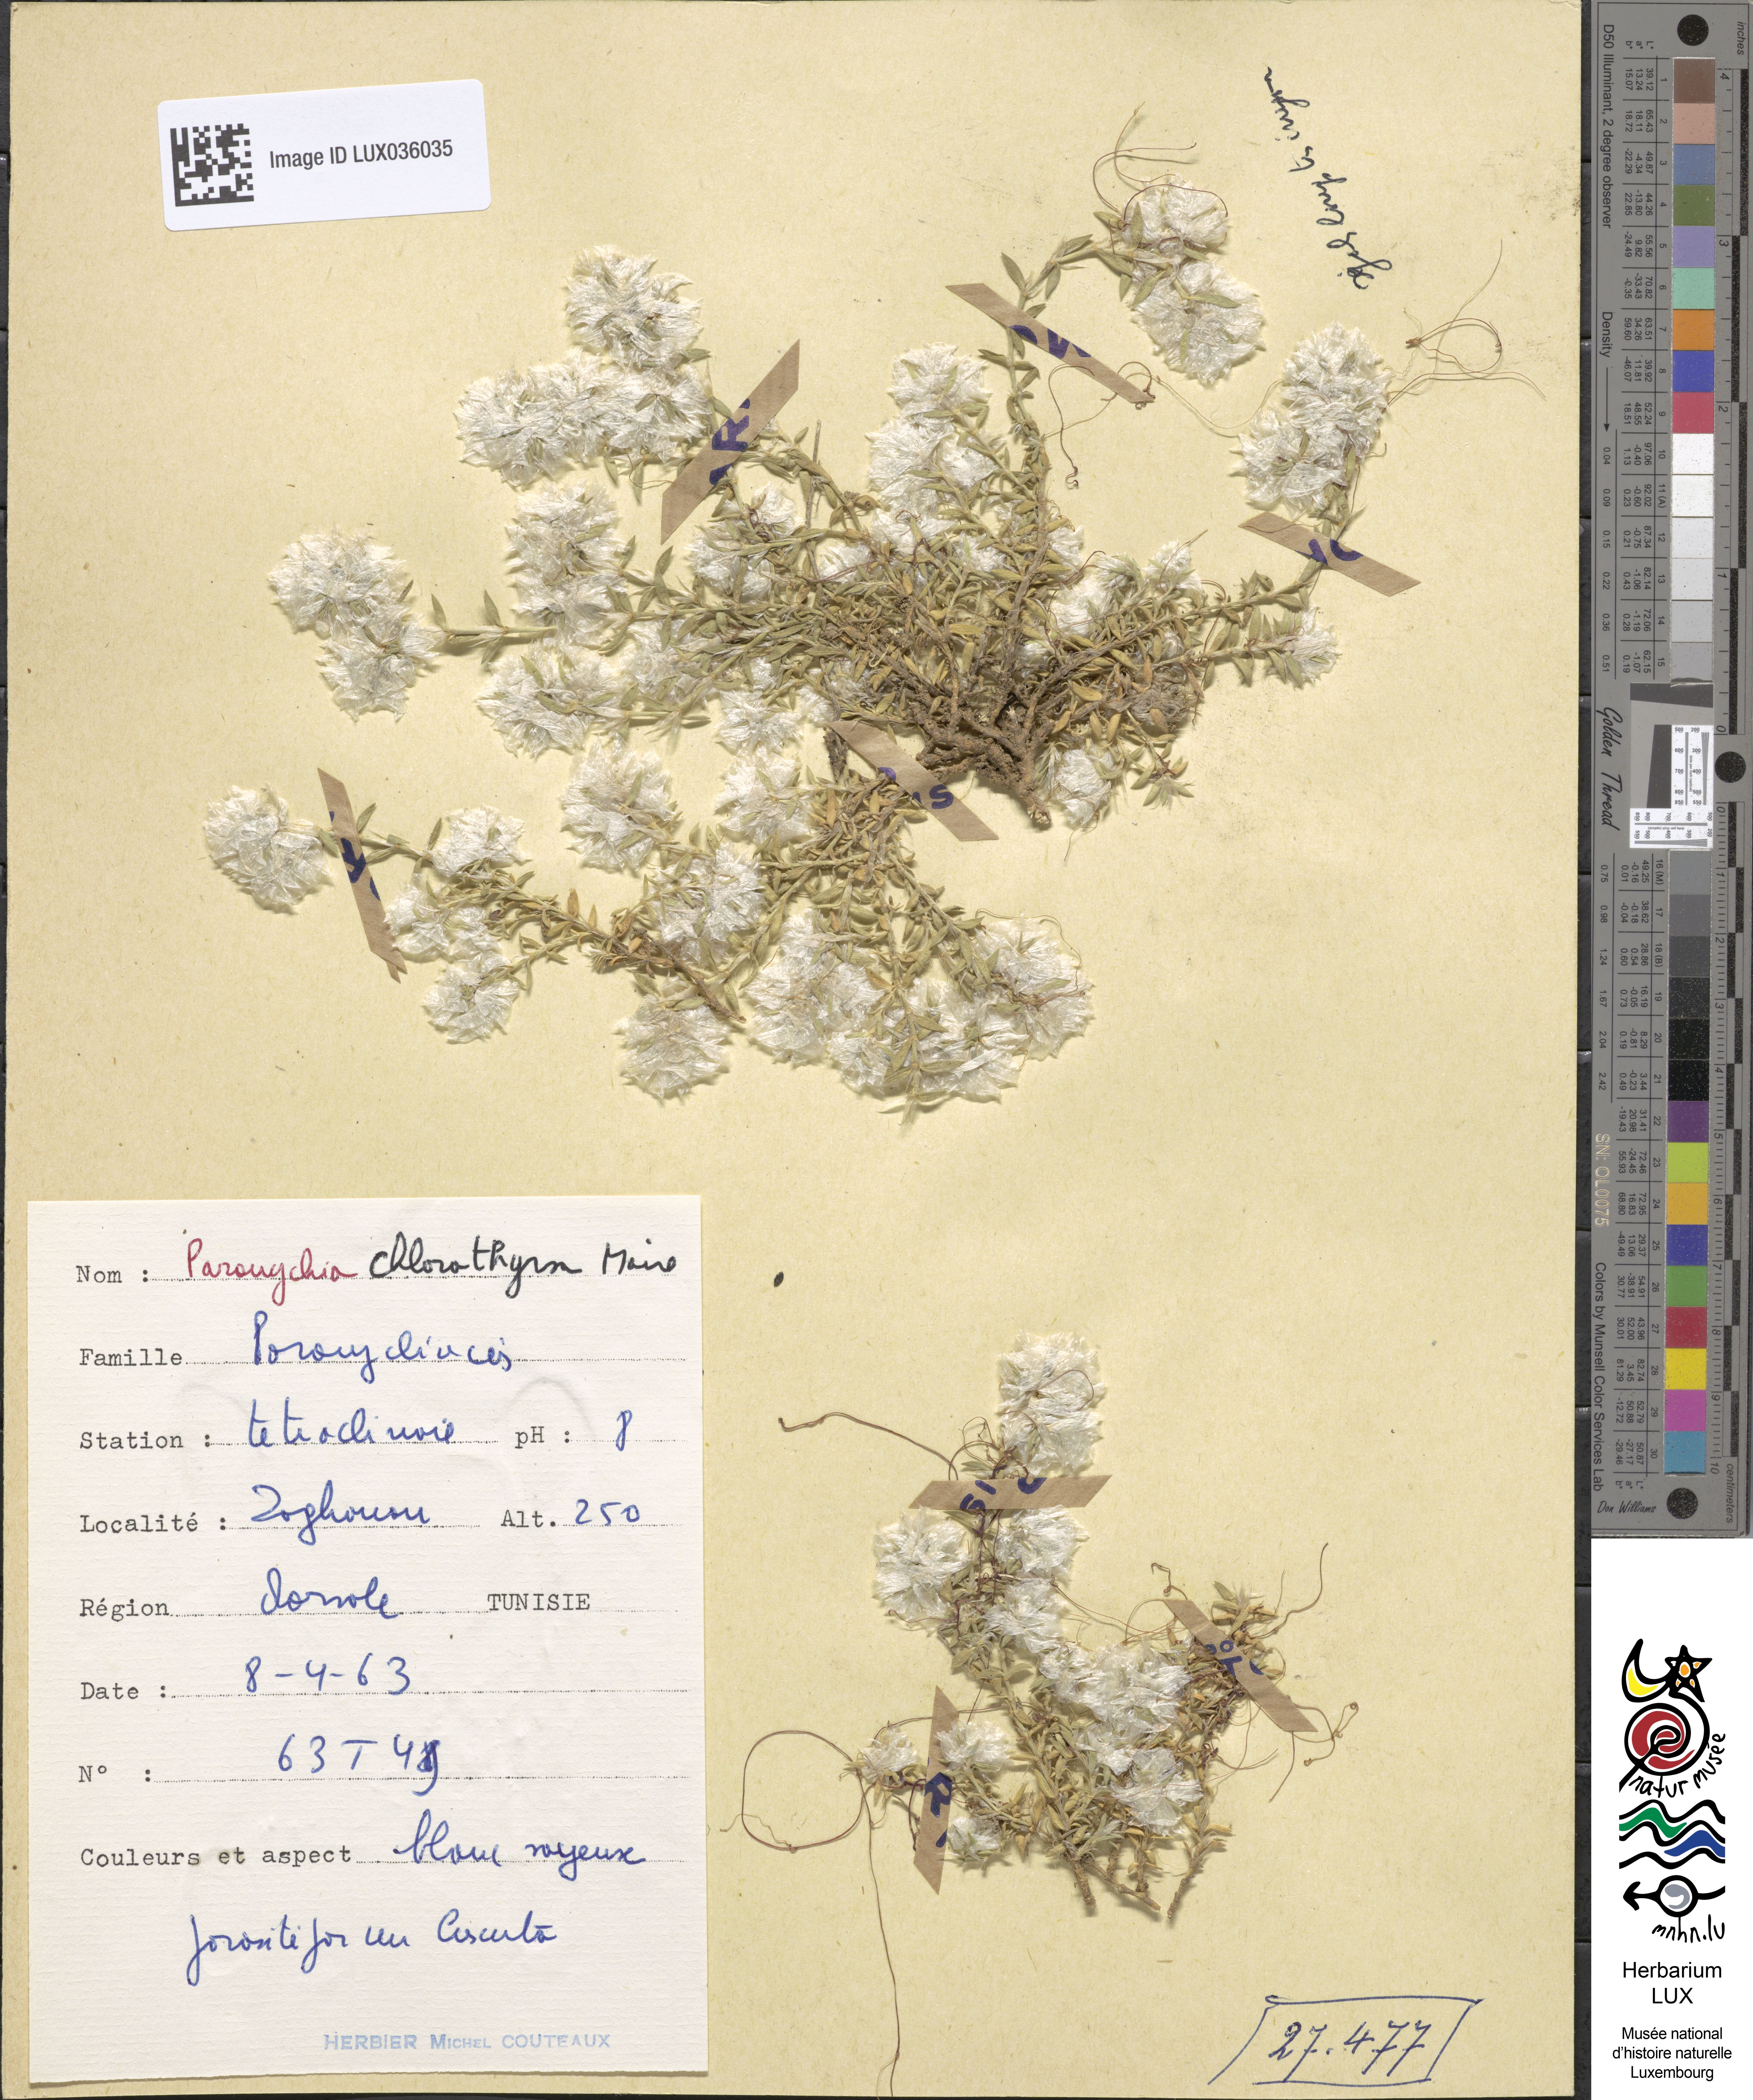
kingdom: Plantae
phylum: Tracheophyta
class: Magnoliopsida
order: Caryophyllales
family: Caryophyllaceae
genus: Paronychia
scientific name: Paronychia chlorothyrsa
